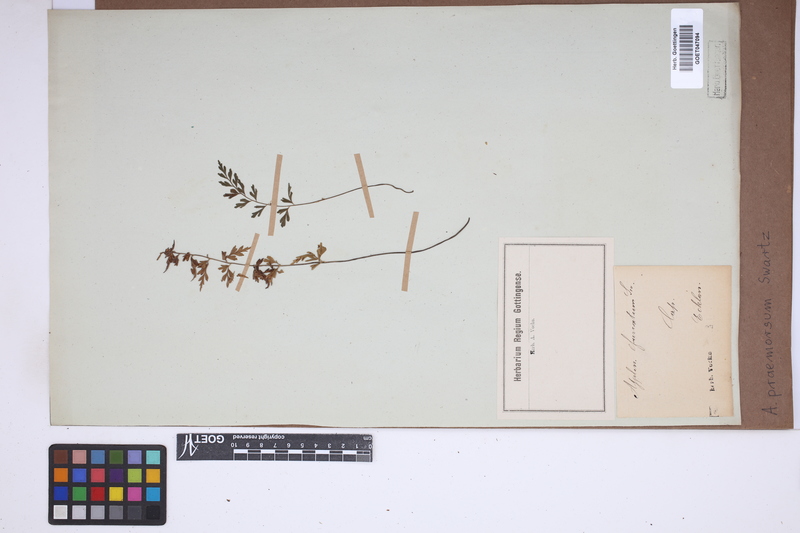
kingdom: Plantae
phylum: Tracheophyta
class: Polypodiopsida
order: Polypodiales
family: Aspleniaceae
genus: Asplenium
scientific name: Asplenium praemorsum
